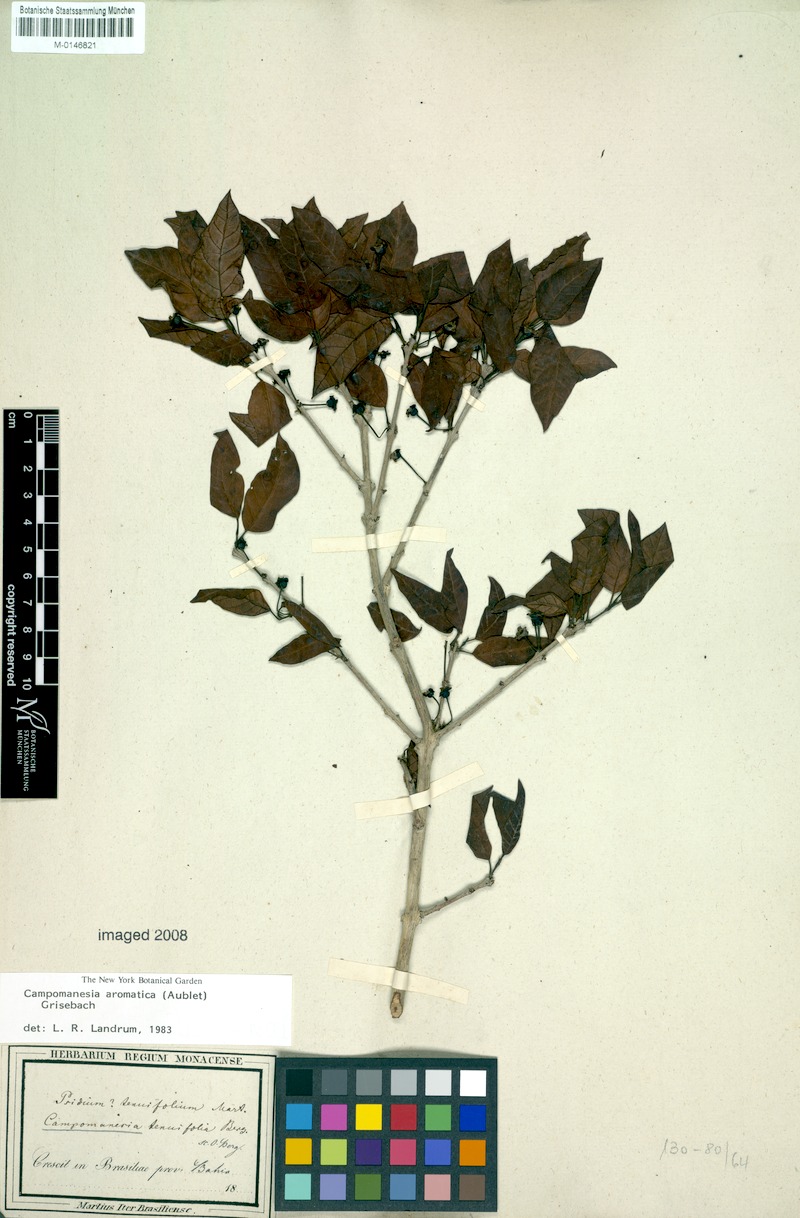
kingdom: Plantae
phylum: Tracheophyta
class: Magnoliopsida
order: Myrtales
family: Myrtaceae
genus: Campomanesia
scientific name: Campomanesia aromatica
